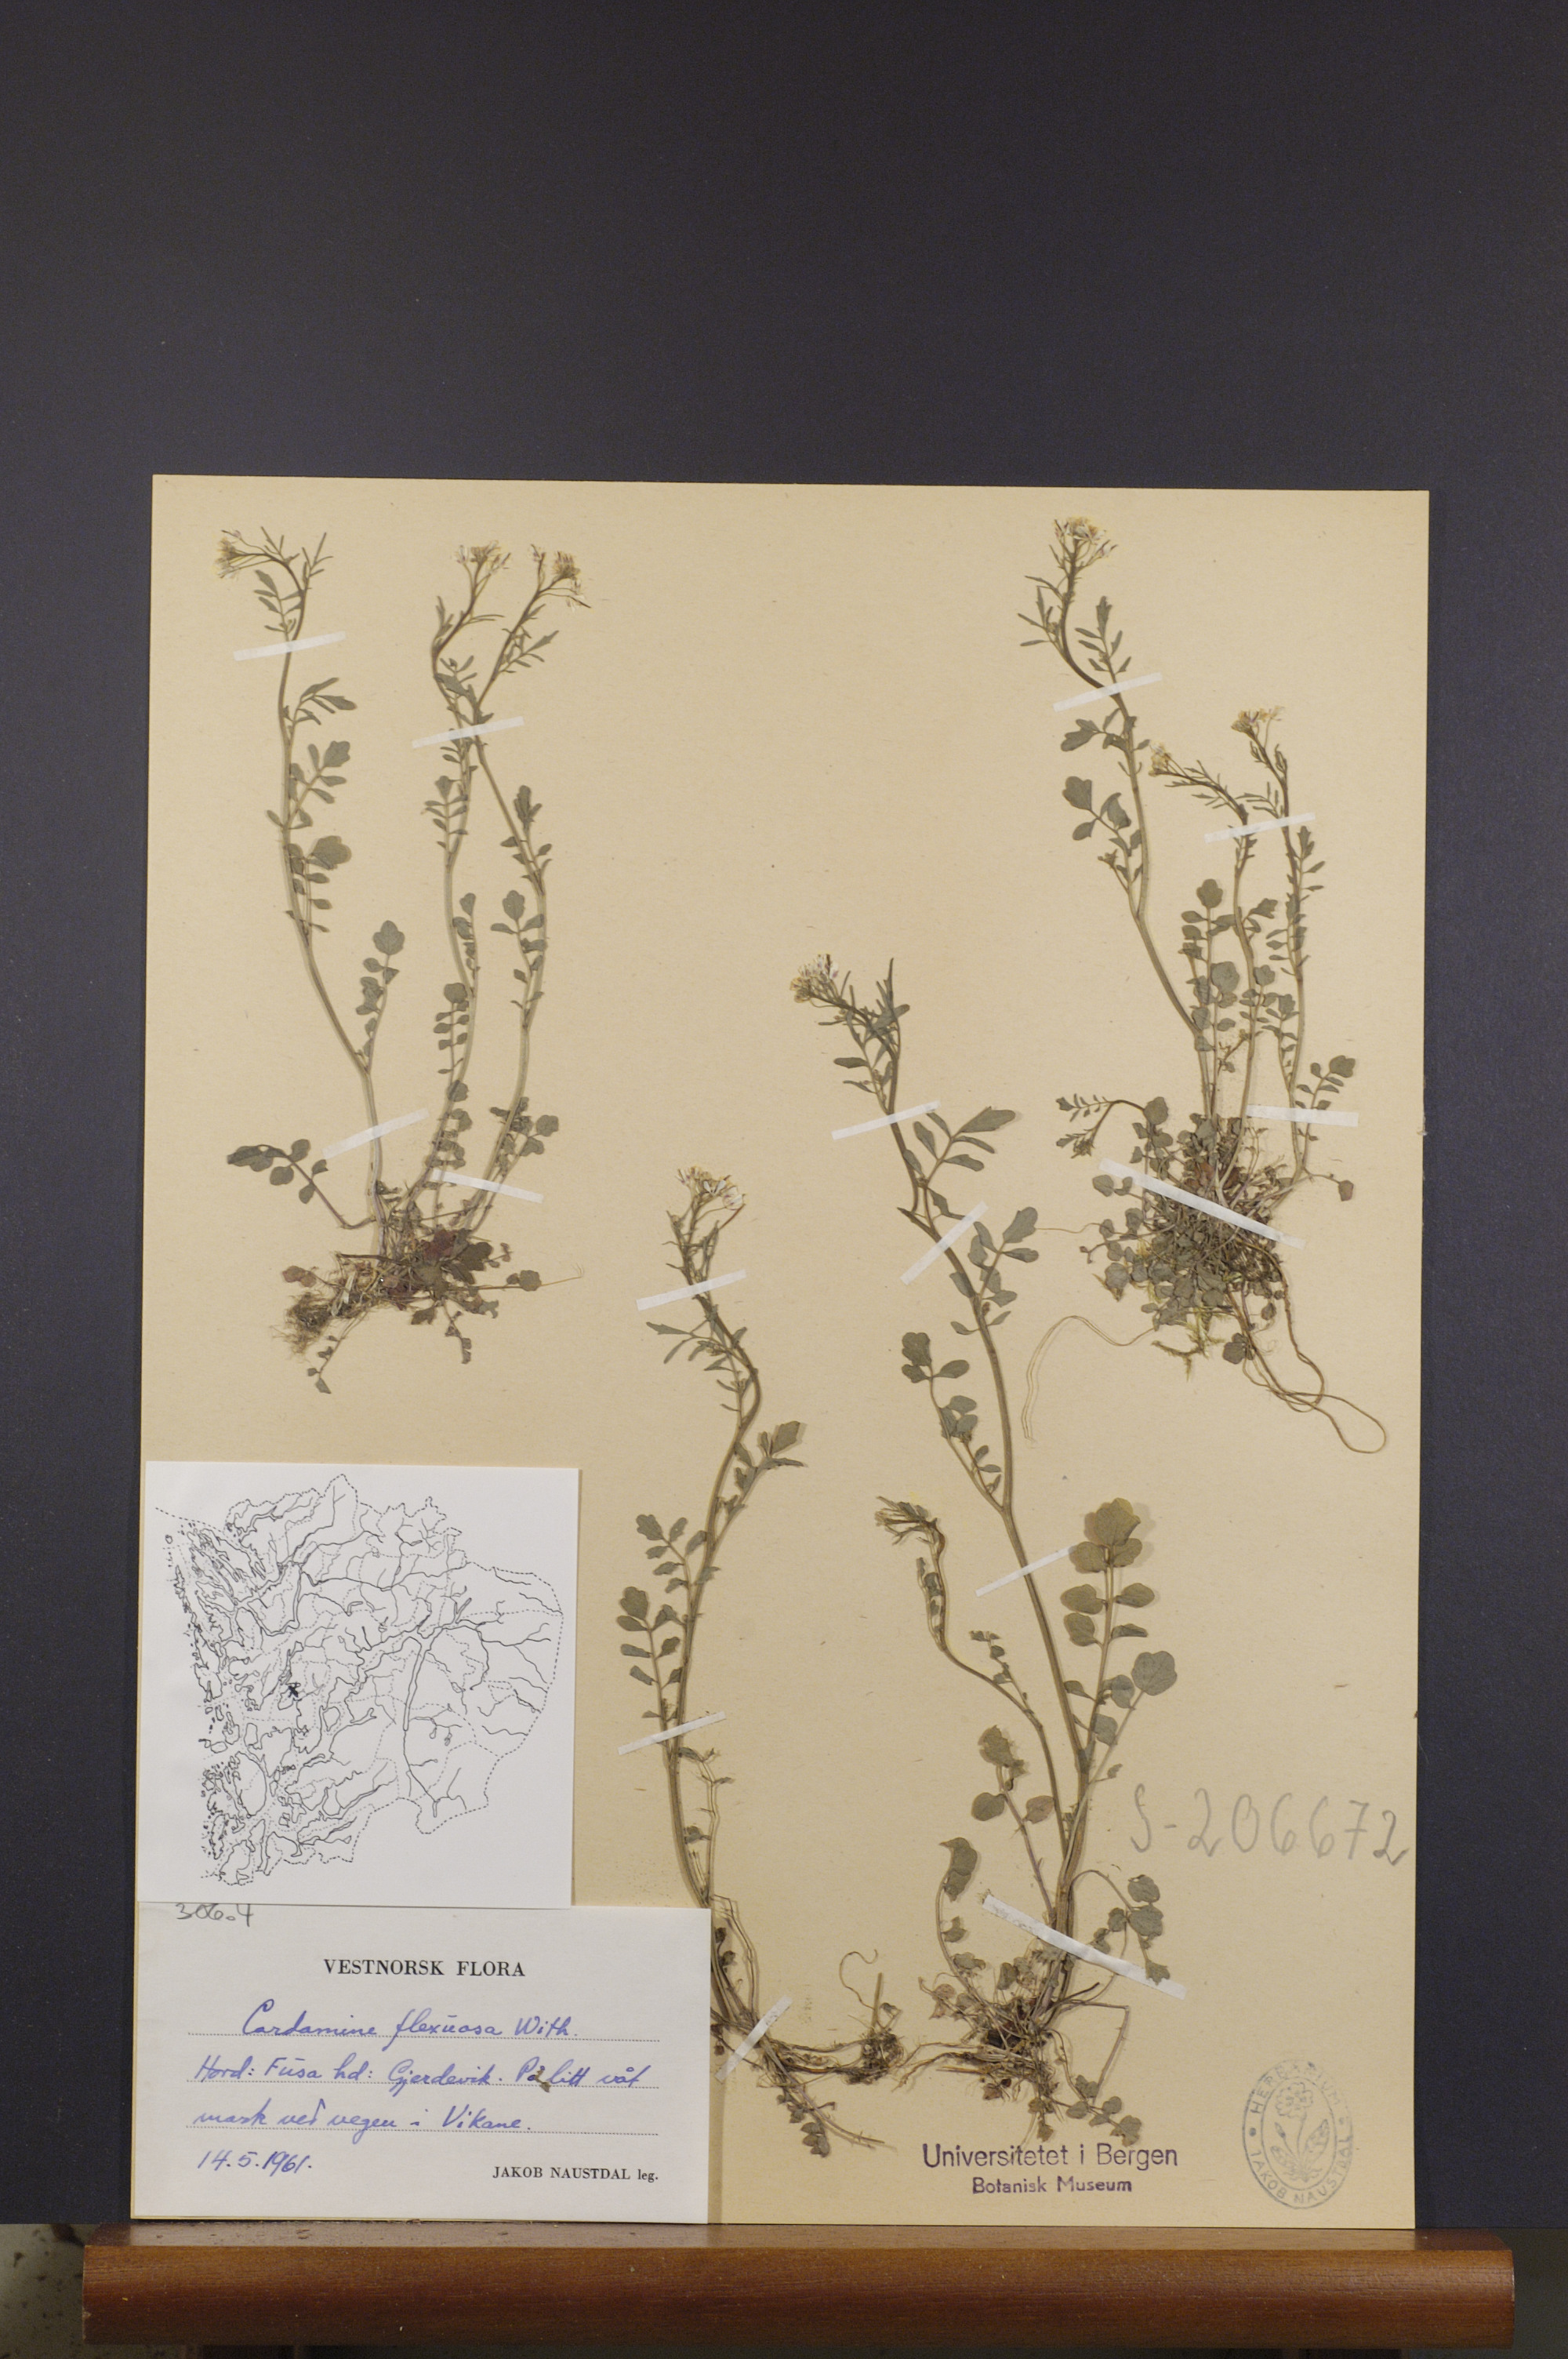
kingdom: Plantae
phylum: Tracheophyta
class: Magnoliopsida
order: Brassicales
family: Brassicaceae
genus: Cardamine
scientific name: Cardamine flexuosa
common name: Woodland bittercress
